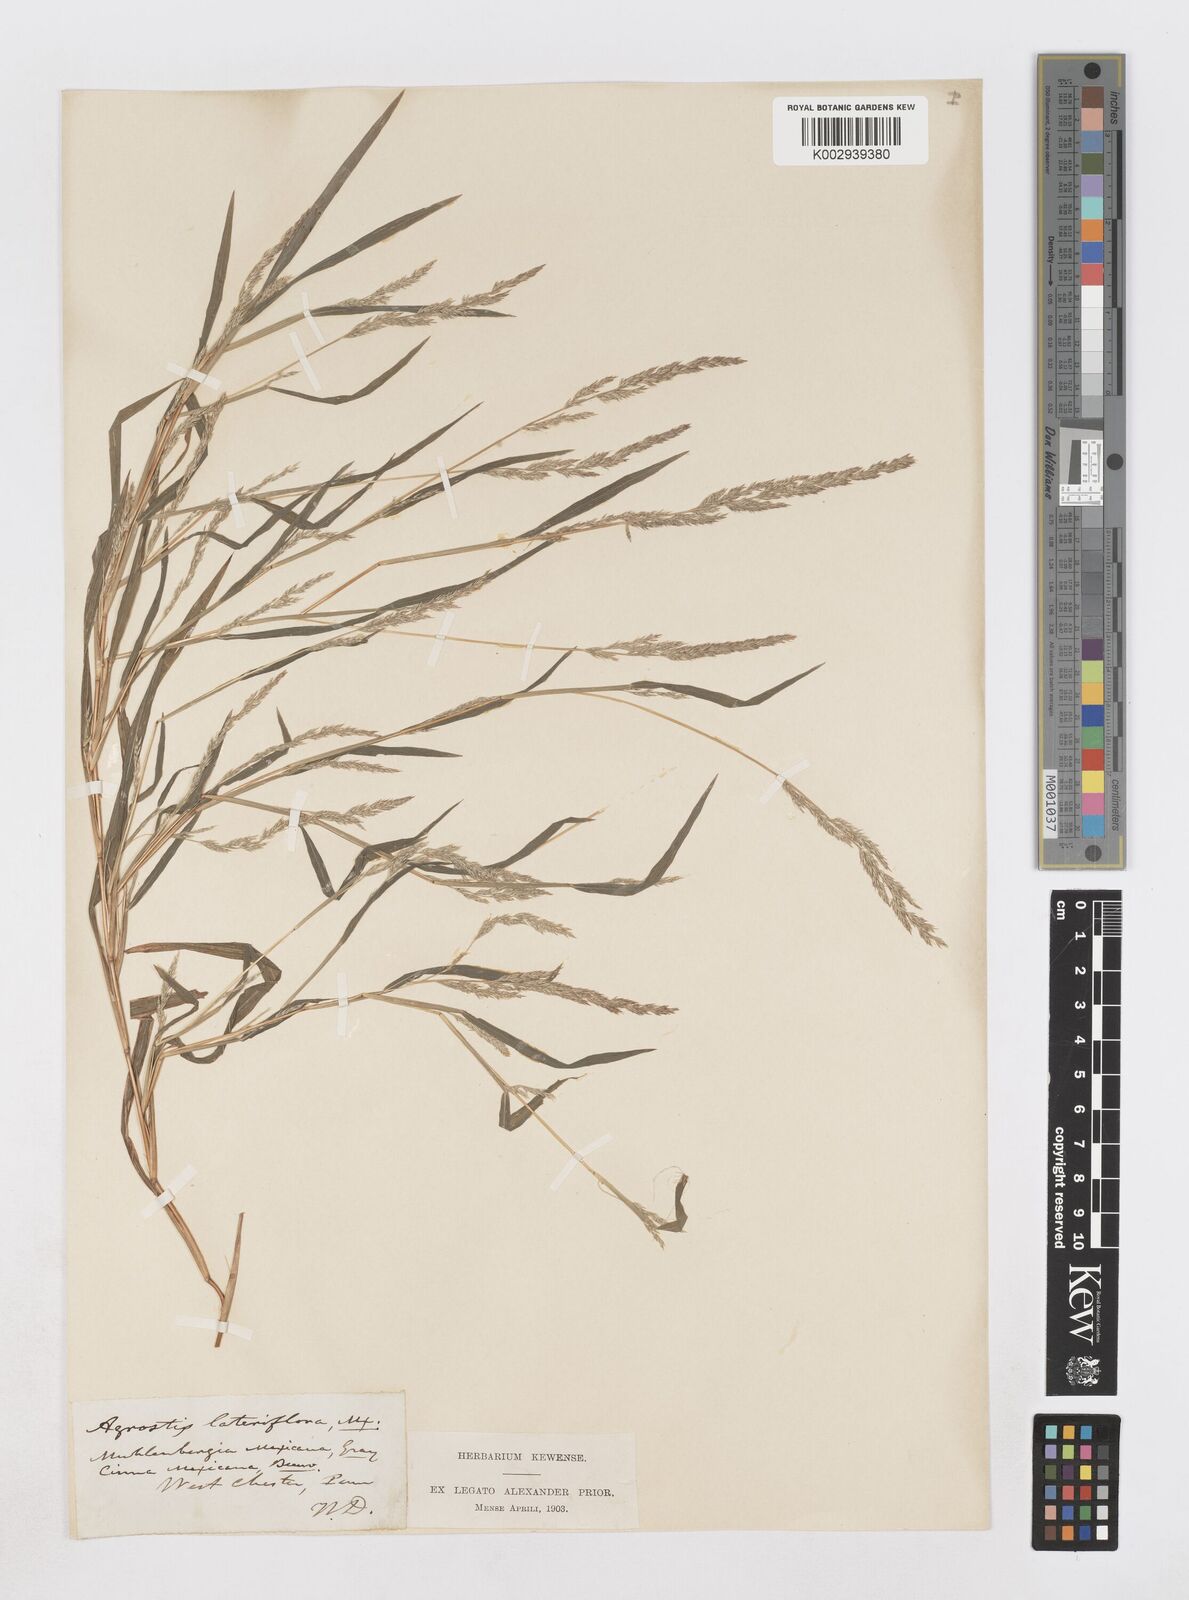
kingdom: Plantae
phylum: Tracheophyta
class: Liliopsida
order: Poales
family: Poaceae
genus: Muhlenbergia
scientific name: Muhlenbergia mexicana
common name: Mexican muhly
